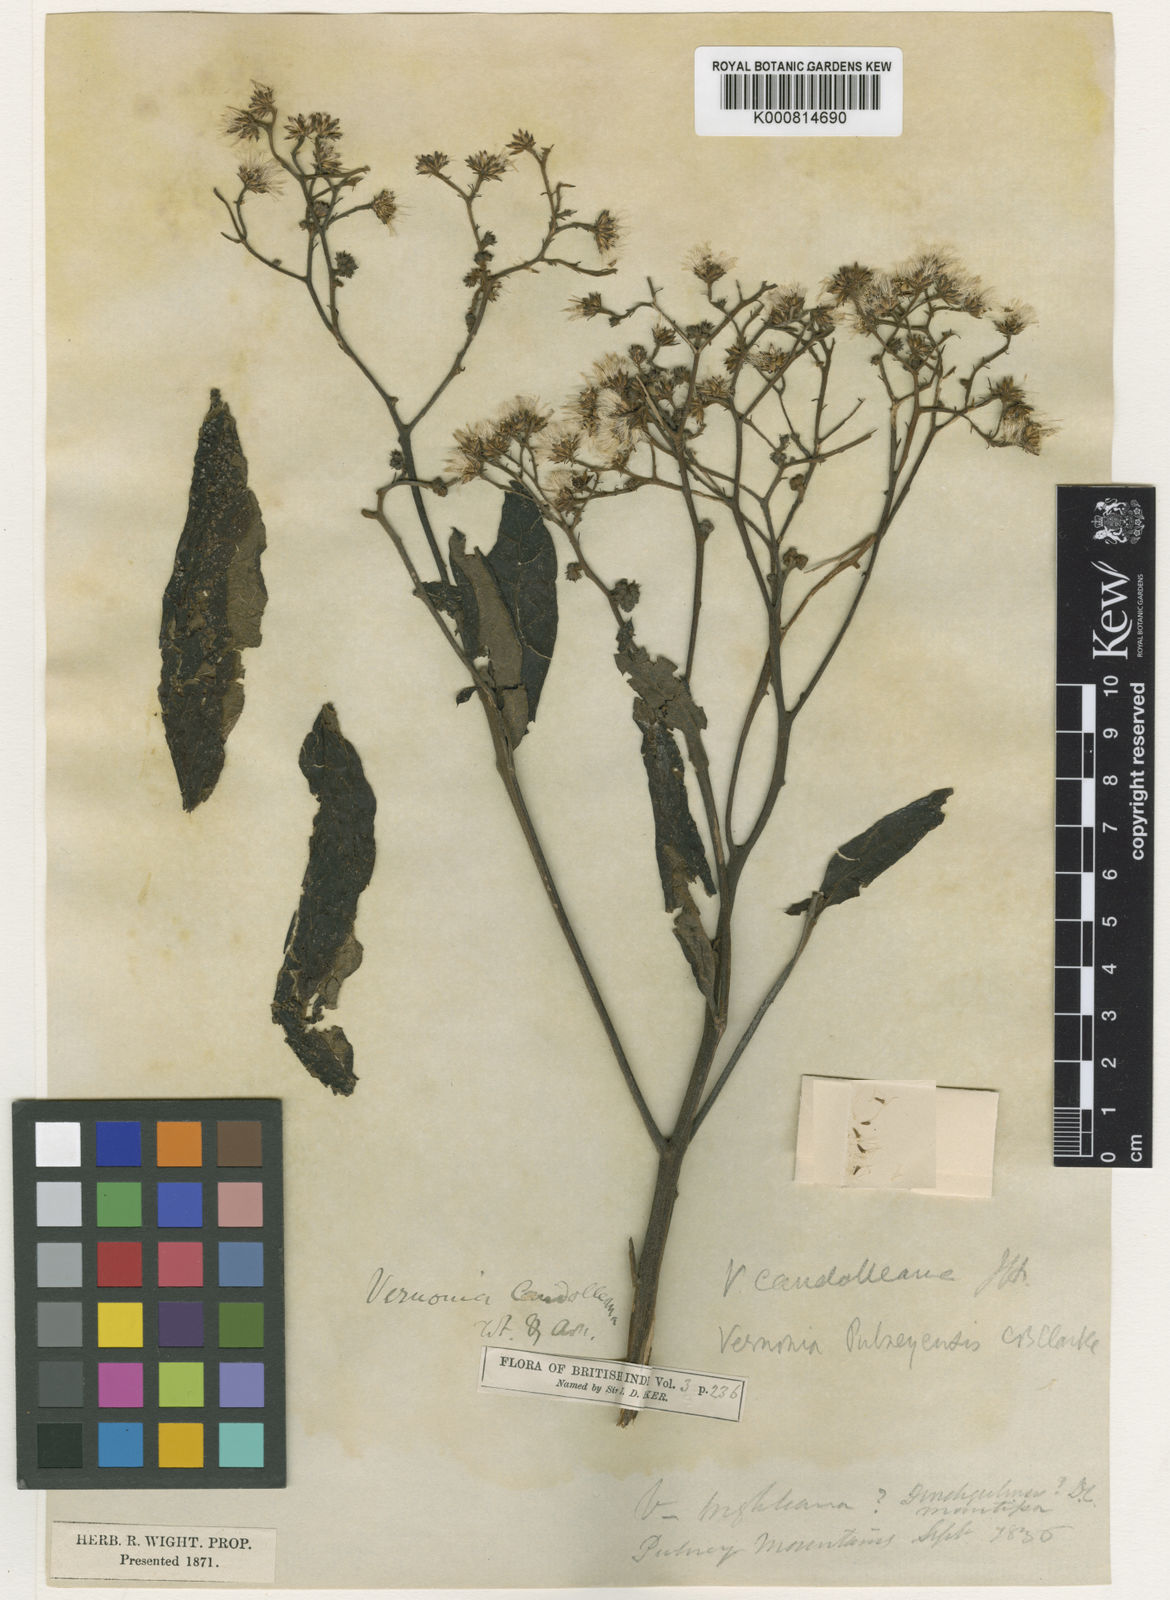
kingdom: Plantae
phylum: Tracheophyta
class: Magnoliopsida
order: Asterales
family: Asteraceae
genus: Cyanthillium
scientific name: Cyanthillium conyzoides
